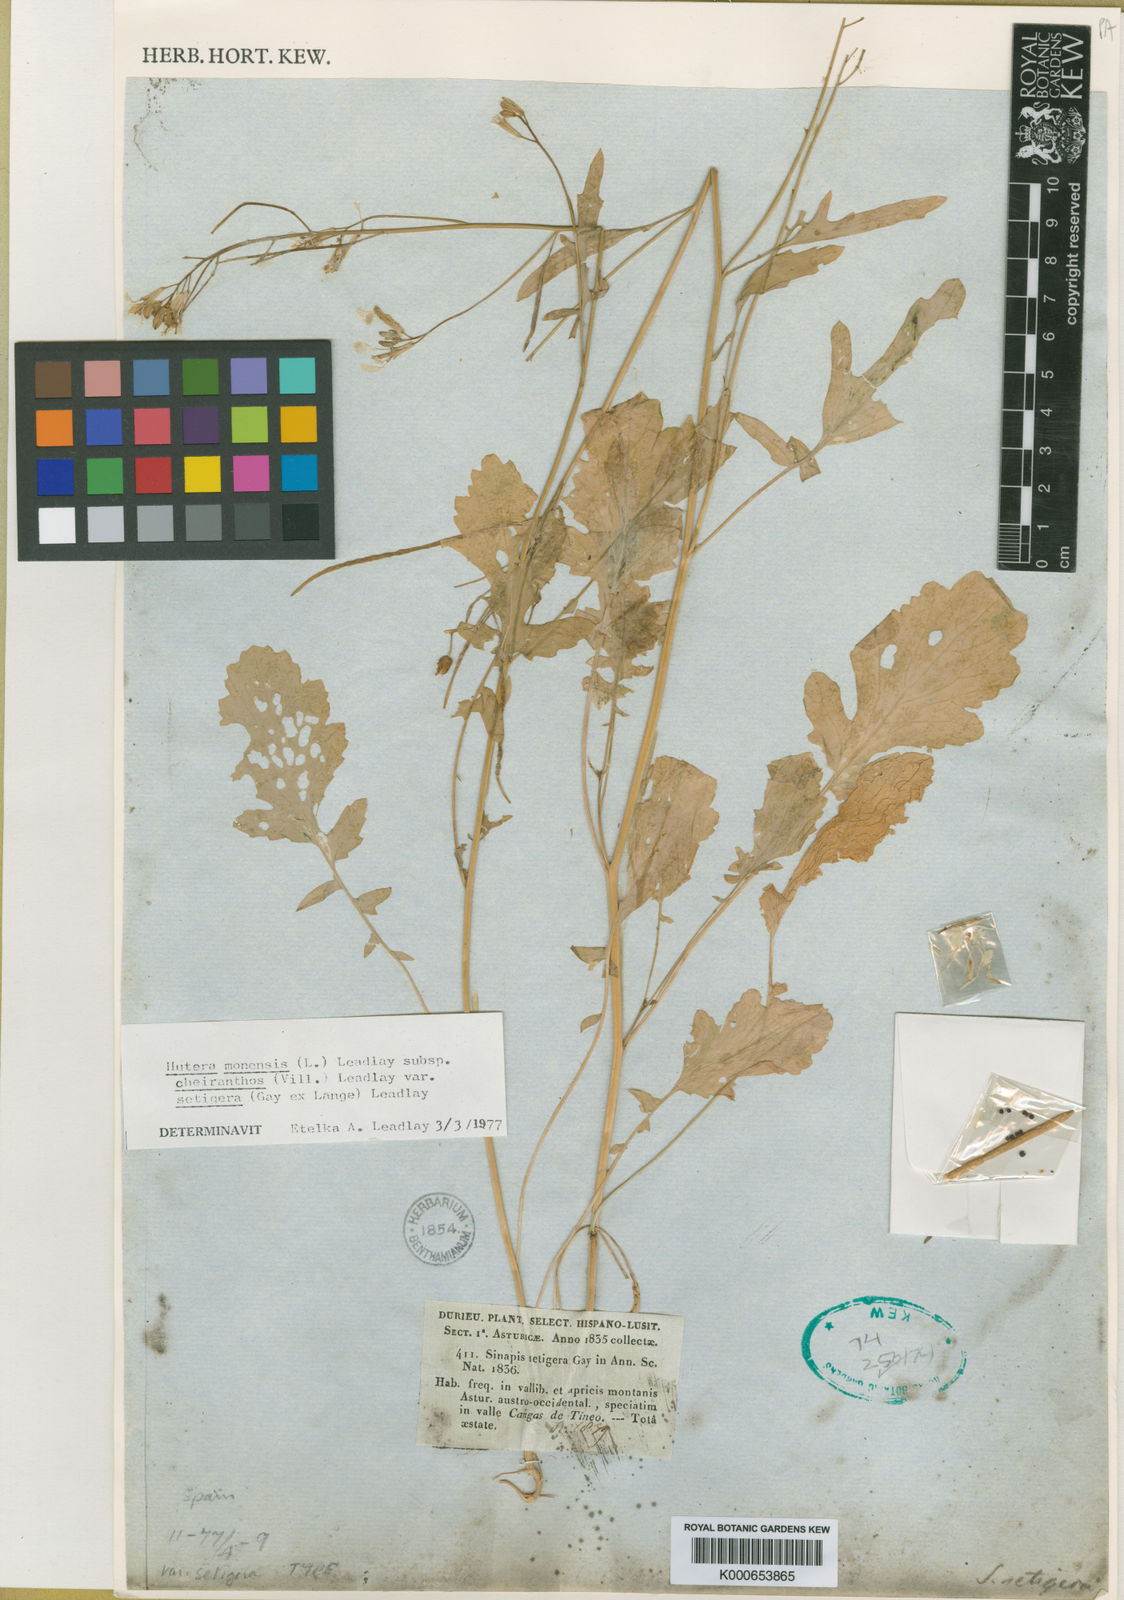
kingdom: Plantae
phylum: Tracheophyta
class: Magnoliopsida
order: Brassicales
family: Brassicaceae
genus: Coincya
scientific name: Coincya monensis
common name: Star-mustard
